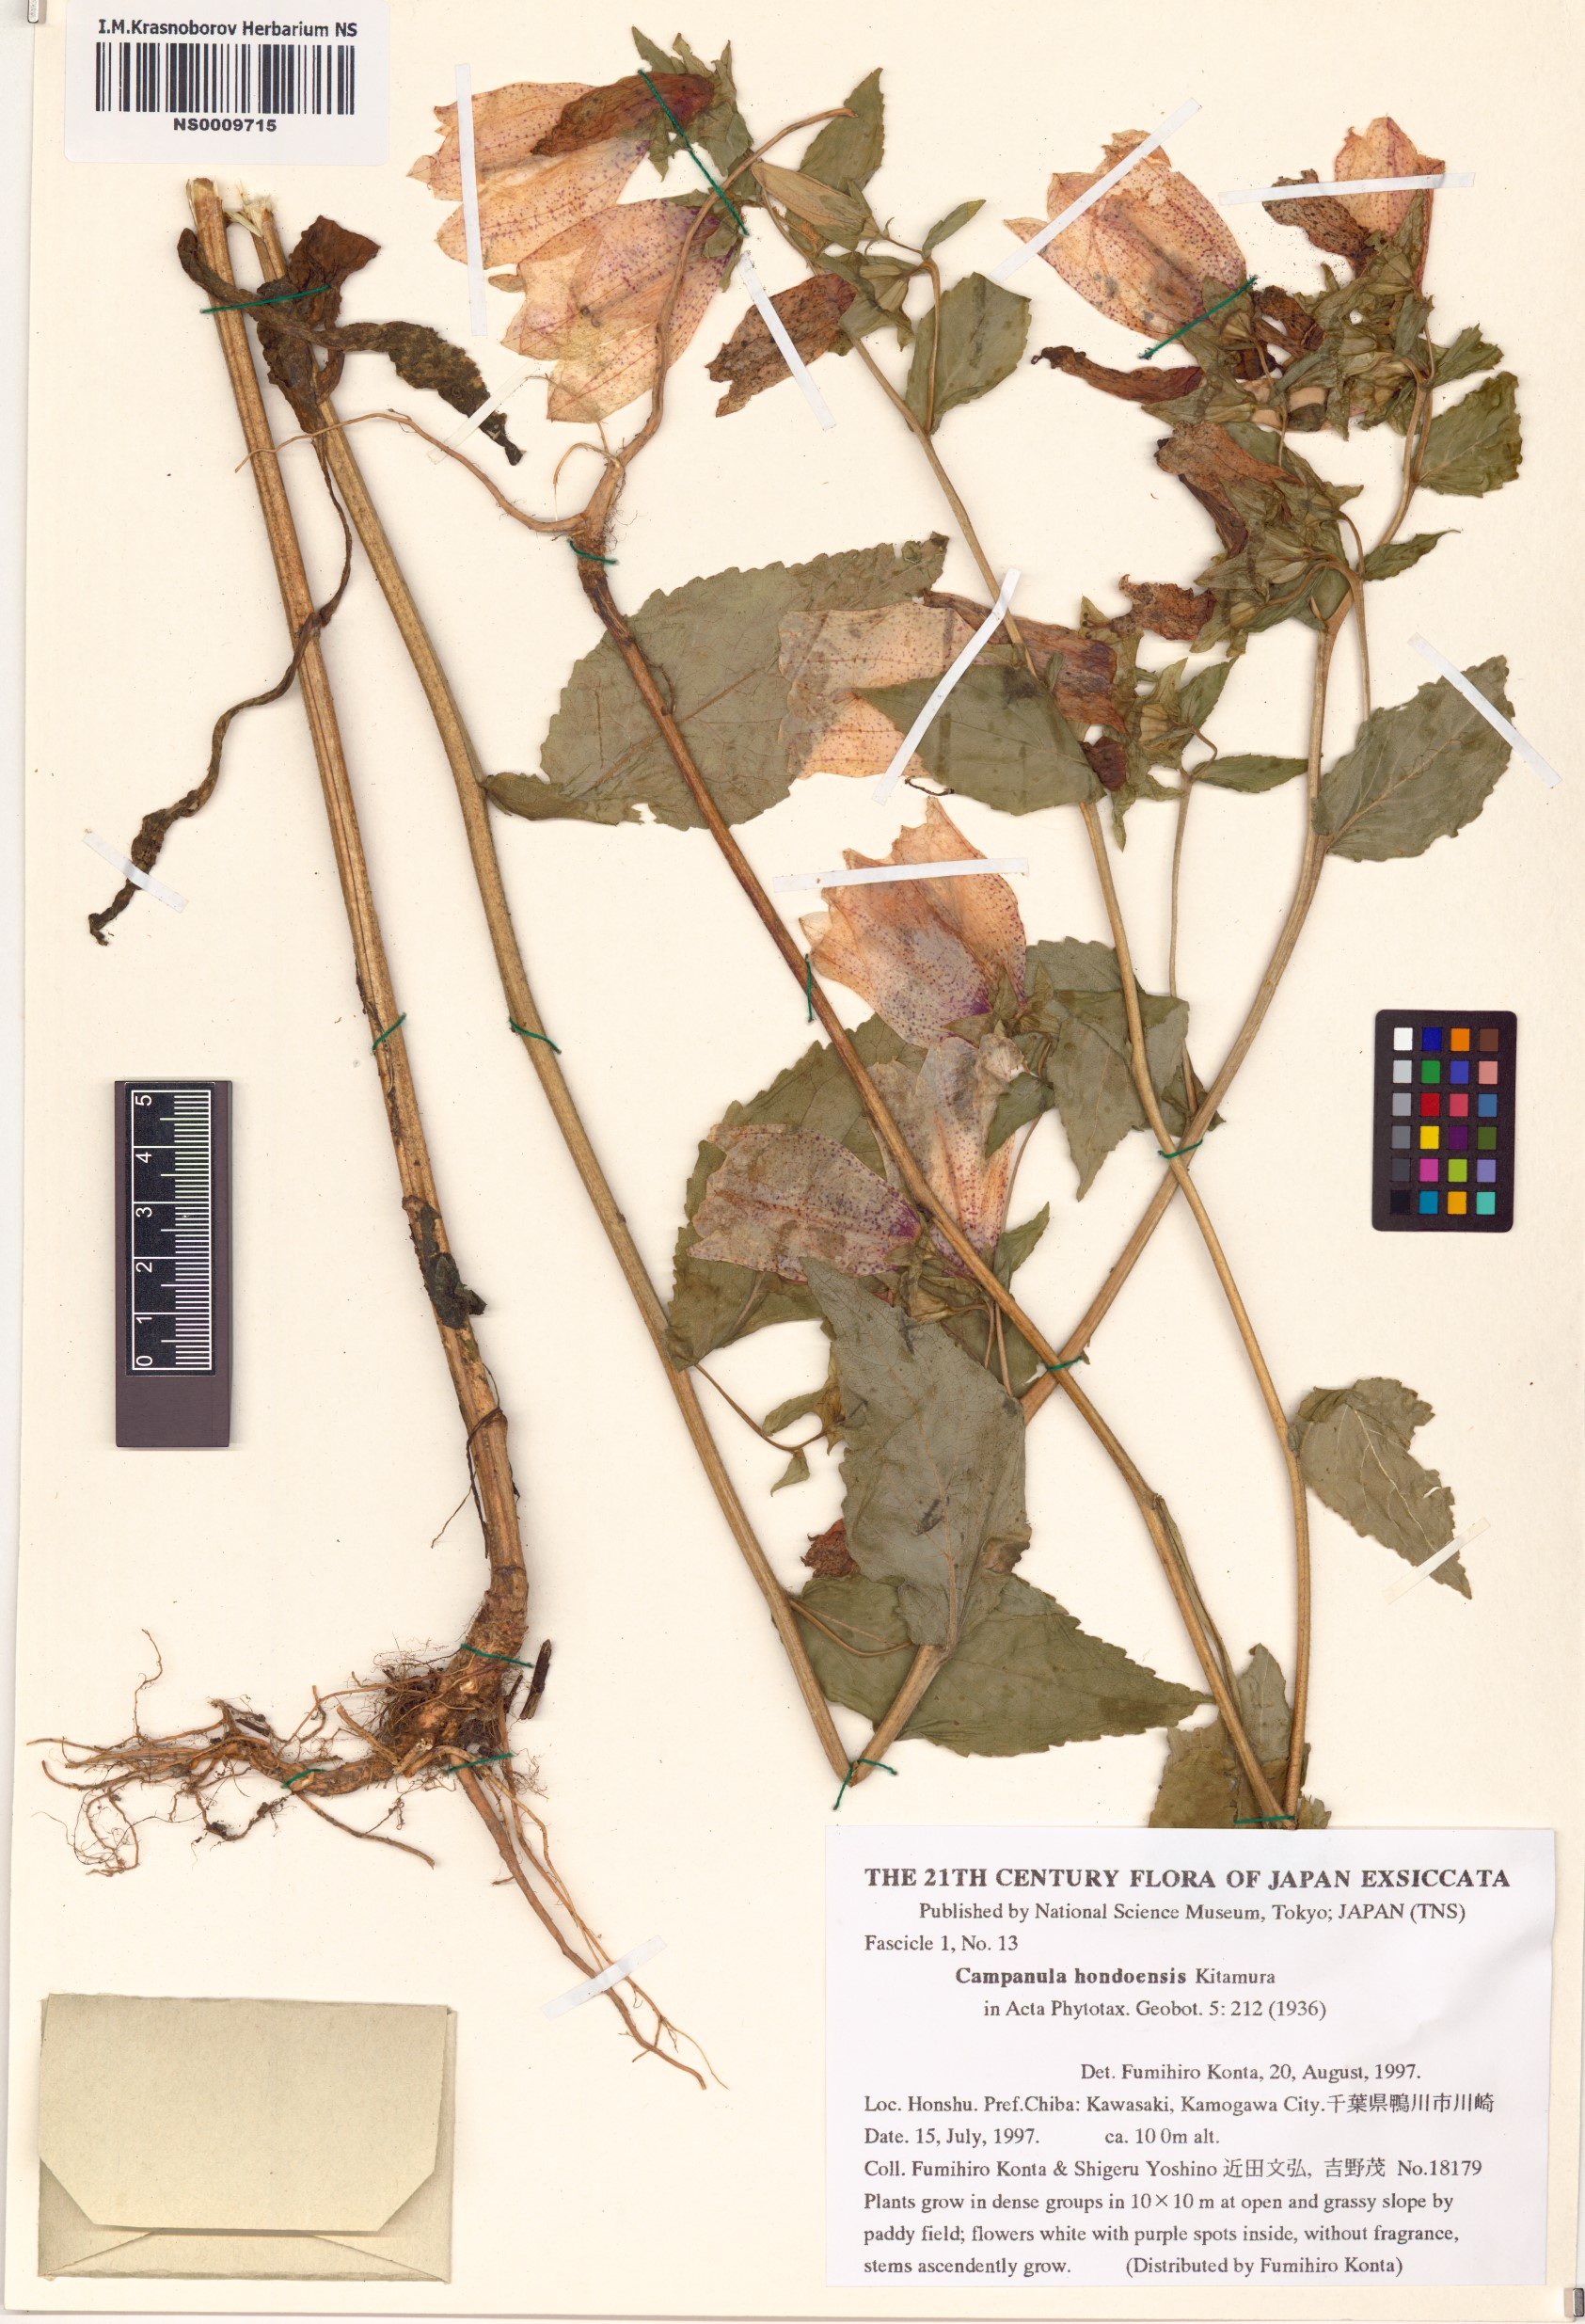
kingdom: Plantae
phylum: Tracheophyta
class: Magnoliopsida
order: Asterales
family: Campanulaceae
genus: Campanula
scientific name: Campanula punctata
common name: Spotted bellflower
